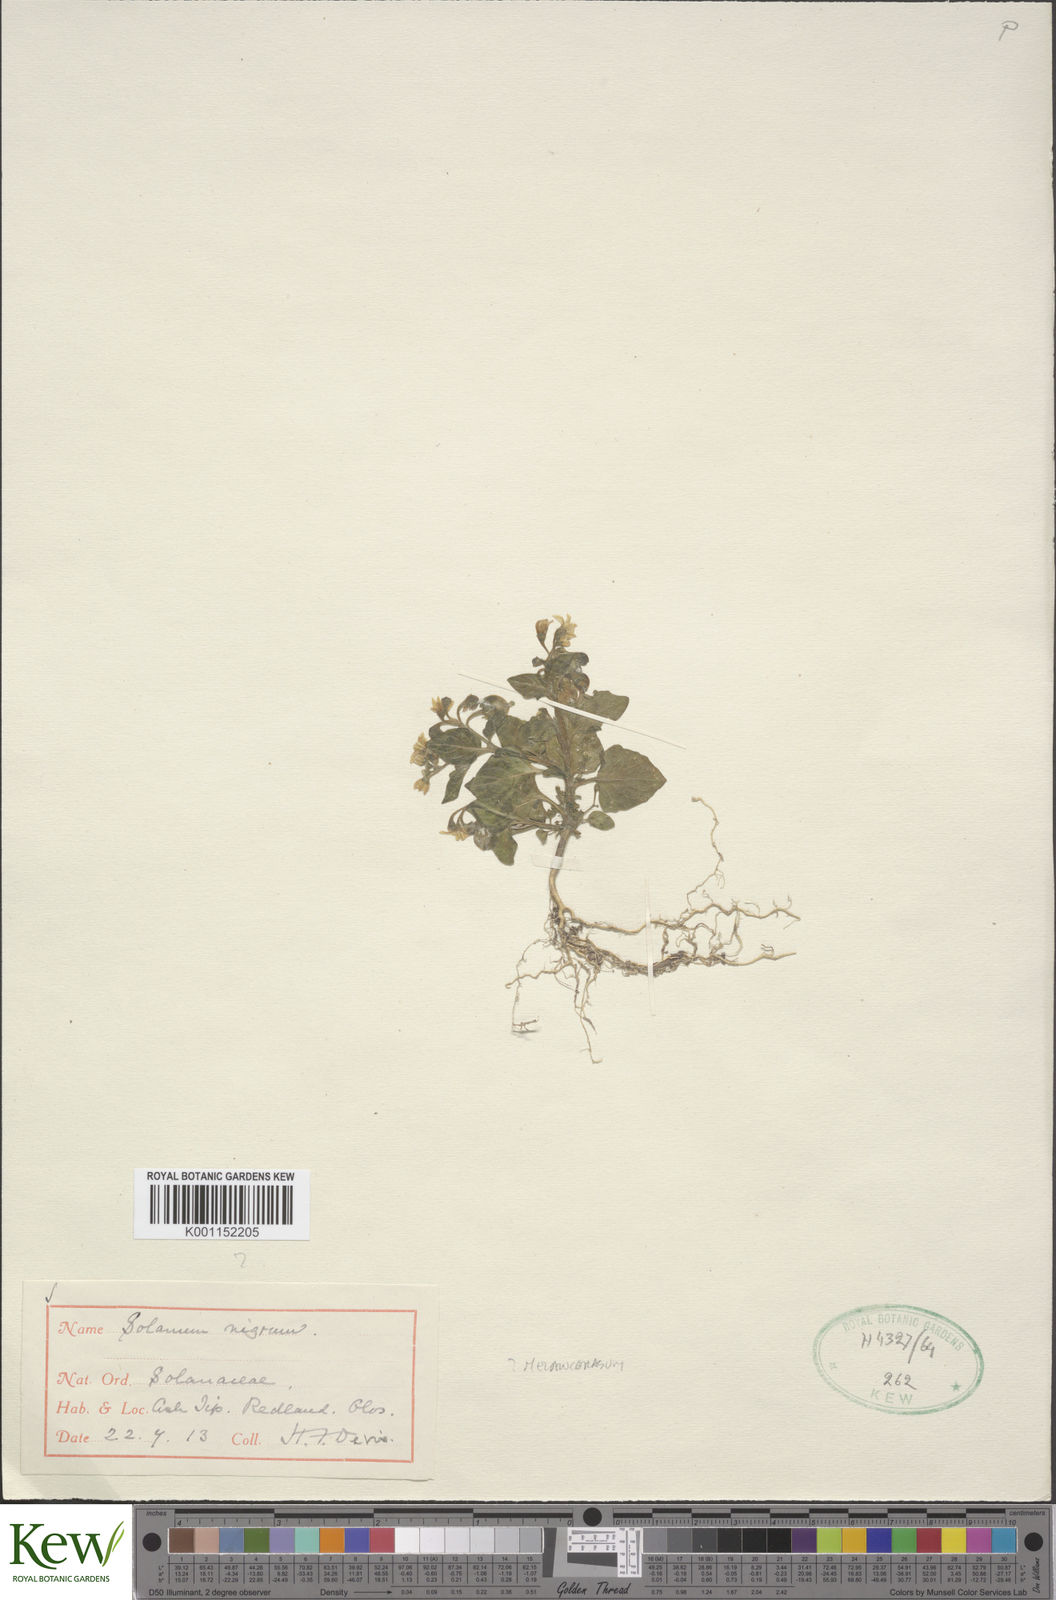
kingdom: Plantae
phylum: Tracheophyta
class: Magnoliopsida
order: Solanales
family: Solanaceae
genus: Solanum
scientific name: Solanum scabrum
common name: Garden-huckleberry
